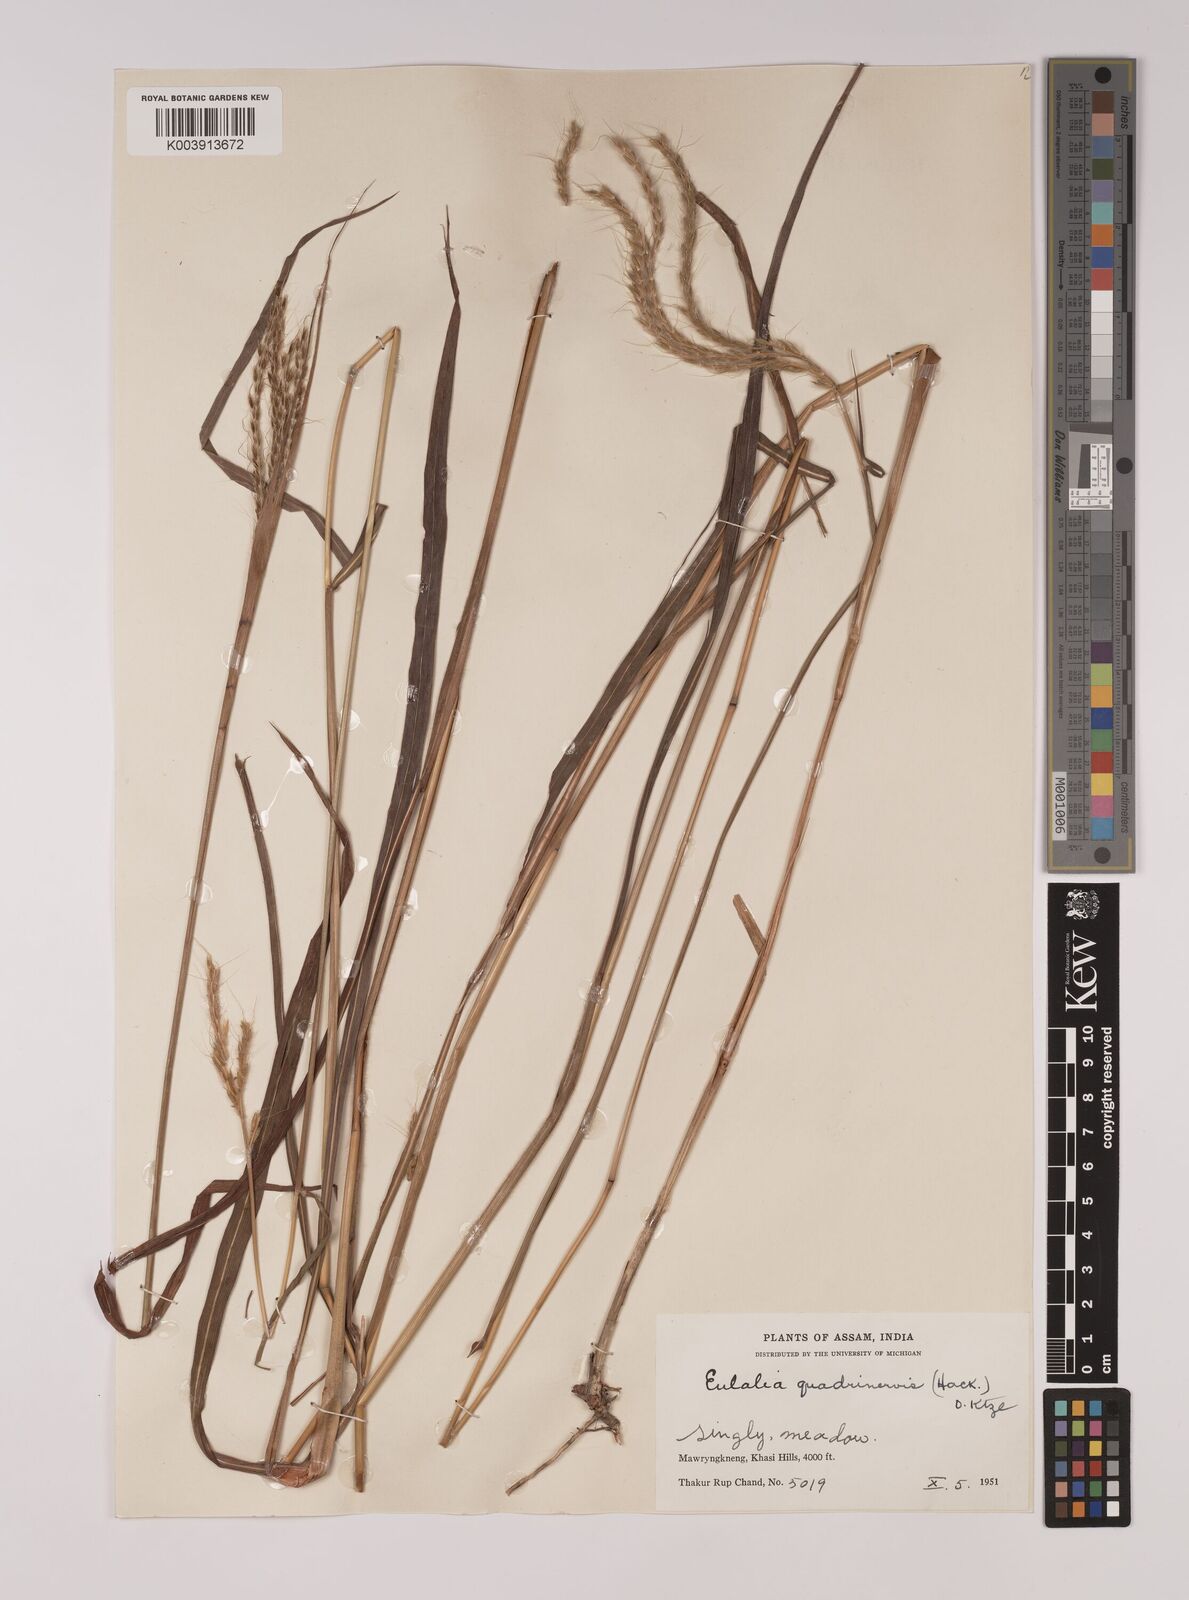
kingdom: Plantae
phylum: Tracheophyta
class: Liliopsida
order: Poales
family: Poaceae
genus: Pseudopogonatherum
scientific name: Pseudopogonatherum quadrinerve
